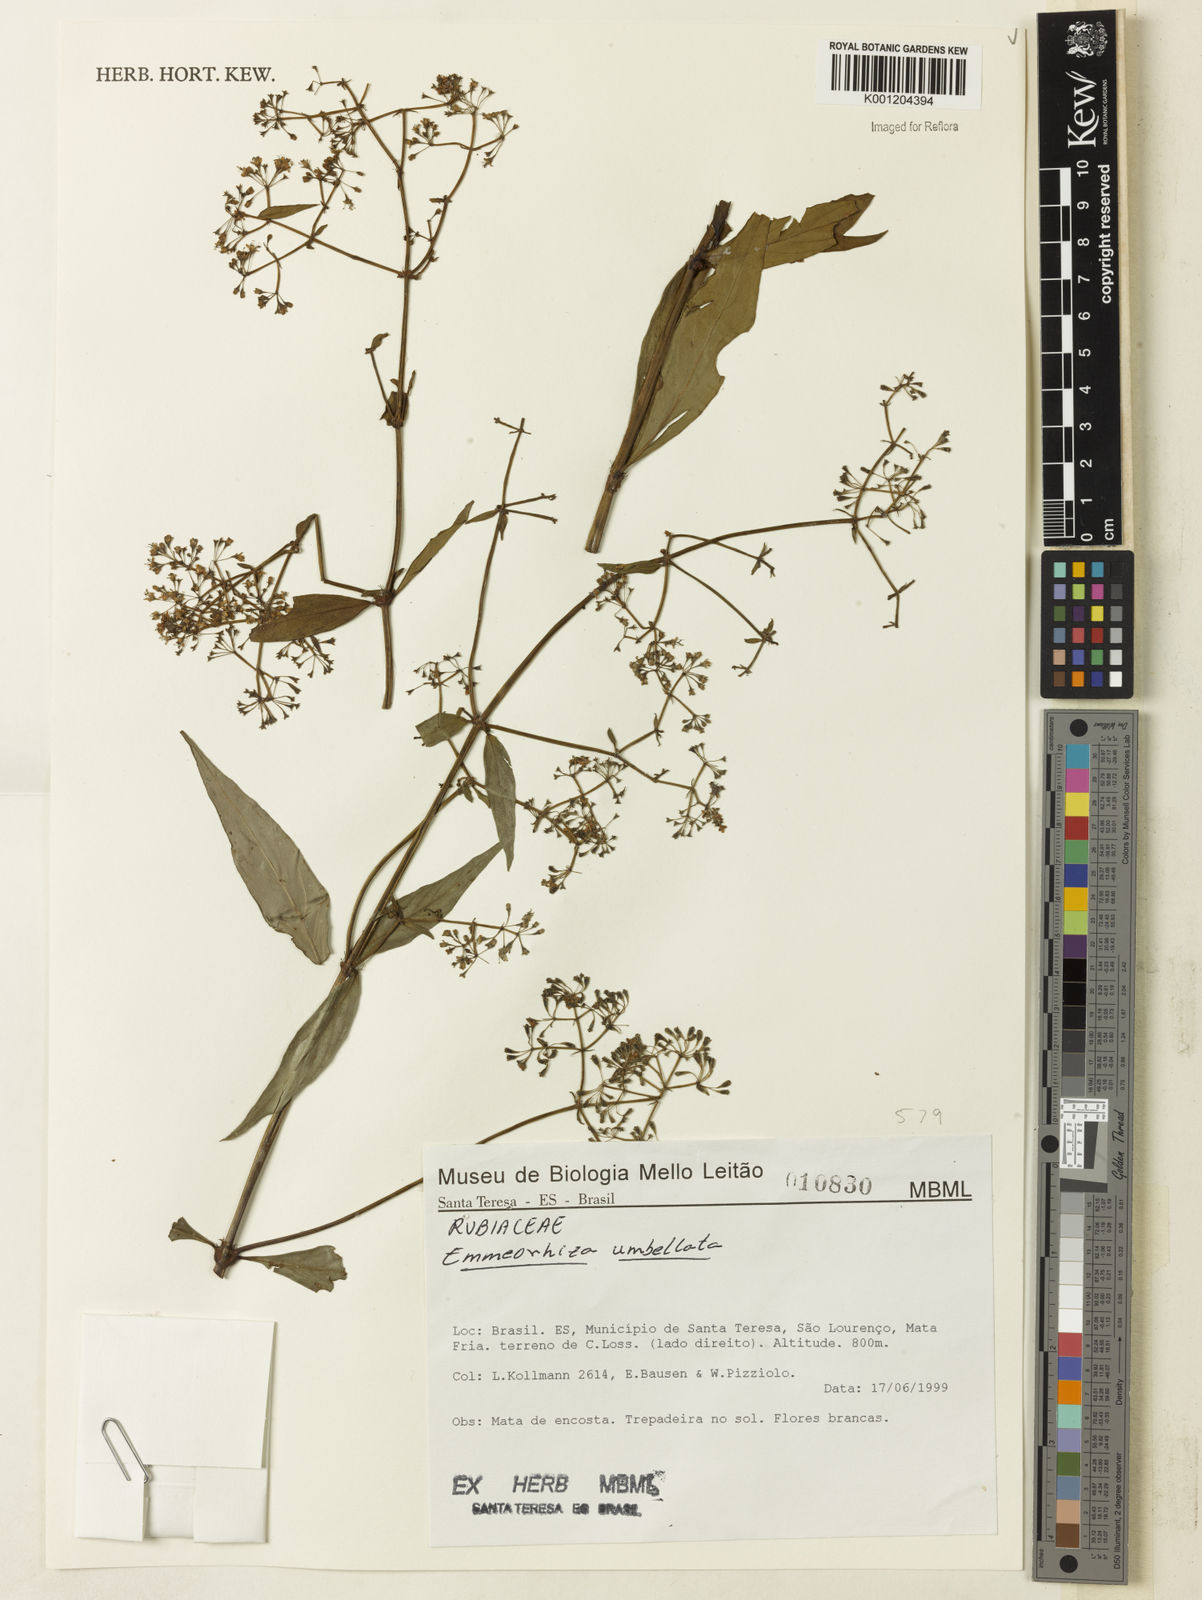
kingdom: Plantae
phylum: Tracheophyta
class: Magnoliopsida
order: Gentianales
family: Rubiaceae
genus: Emmeorhiza
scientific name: Emmeorhiza umbellata
